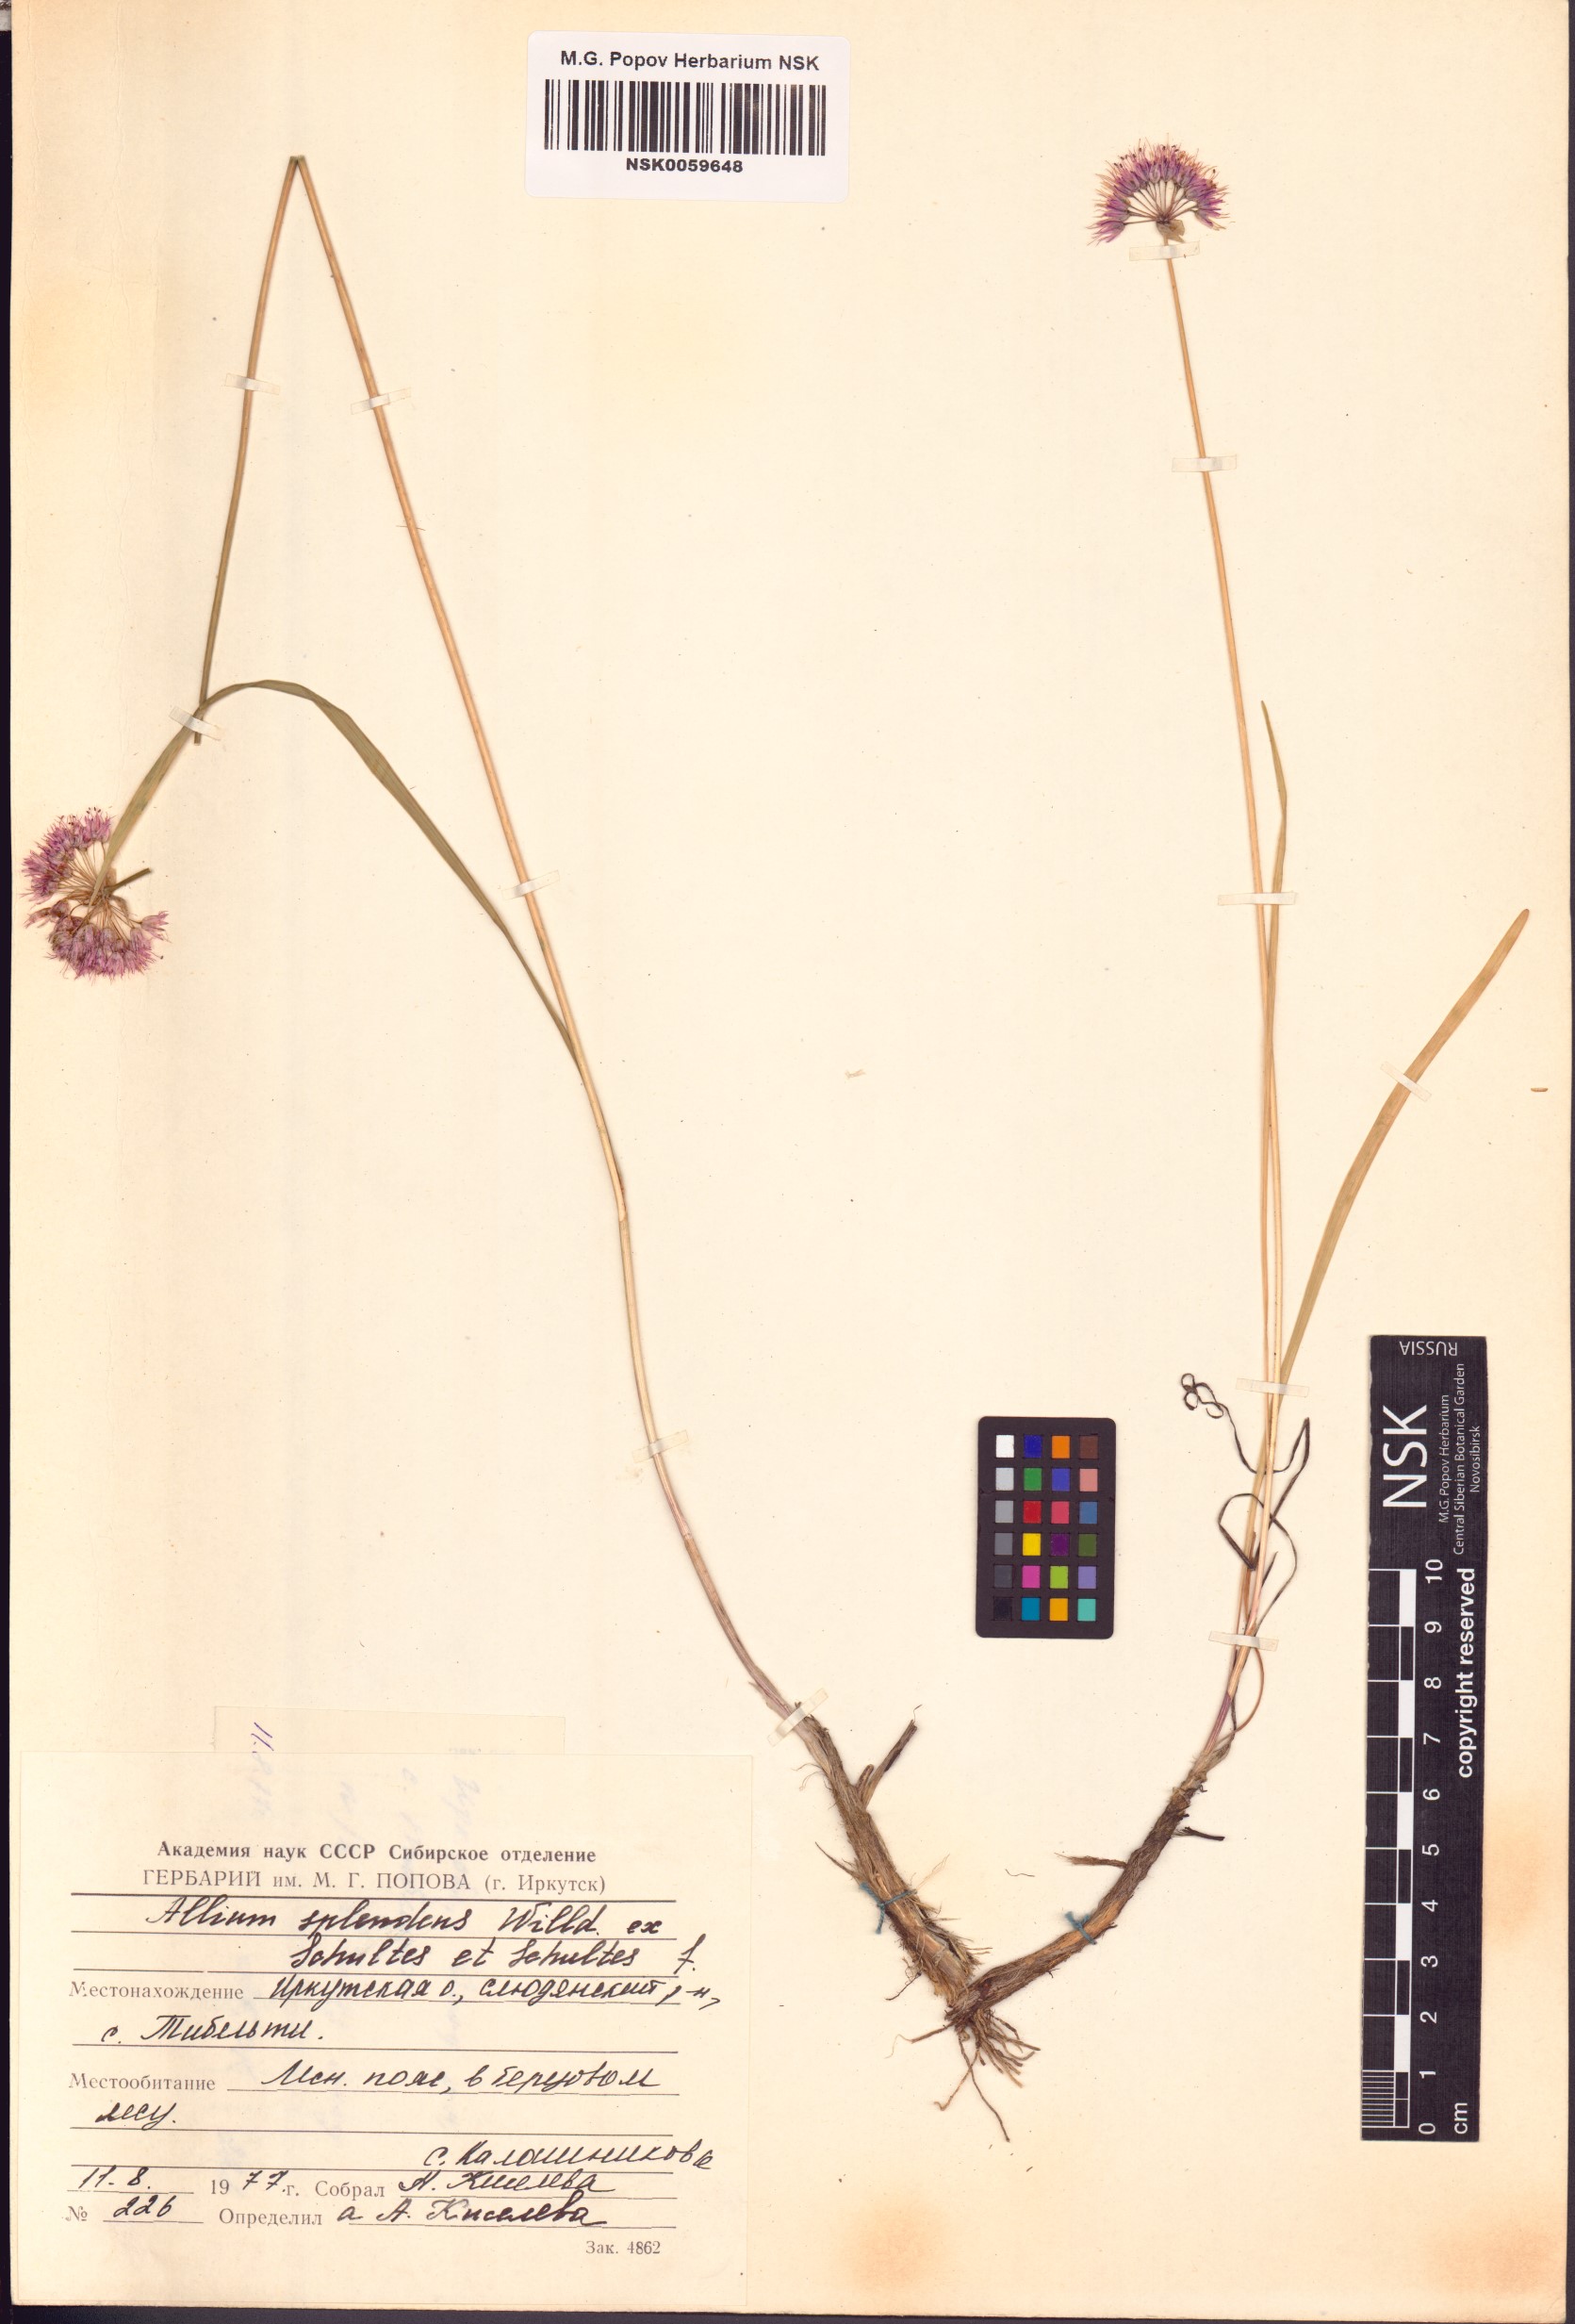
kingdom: Plantae
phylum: Tracheophyta
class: Liliopsida
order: Asparagales
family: Amaryllidaceae
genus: Allium
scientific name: Allium splendens
